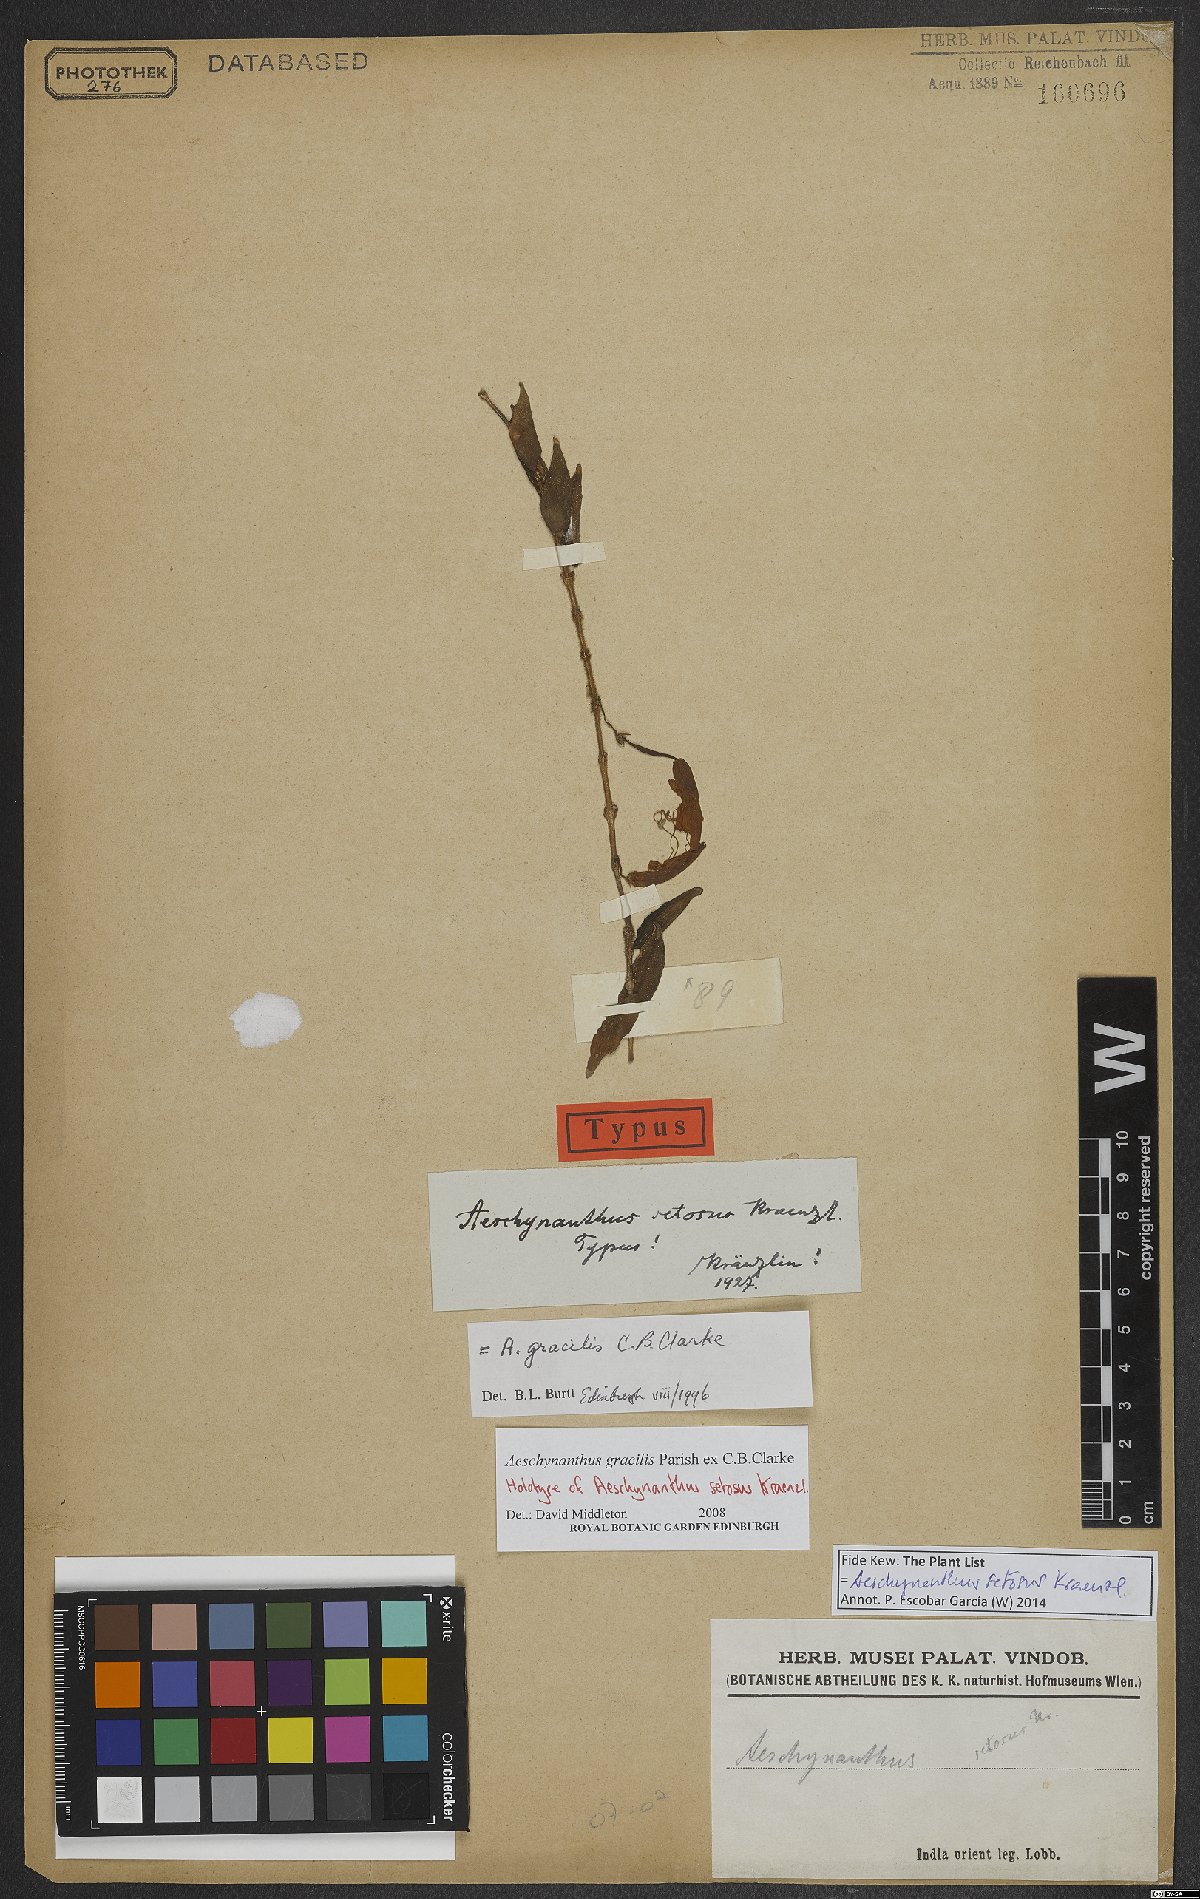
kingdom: Plantae
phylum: Tracheophyta
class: Magnoliopsida
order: Lamiales
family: Gesneriaceae
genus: Aeschynanthus
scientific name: Aeschynanthus gracilis
